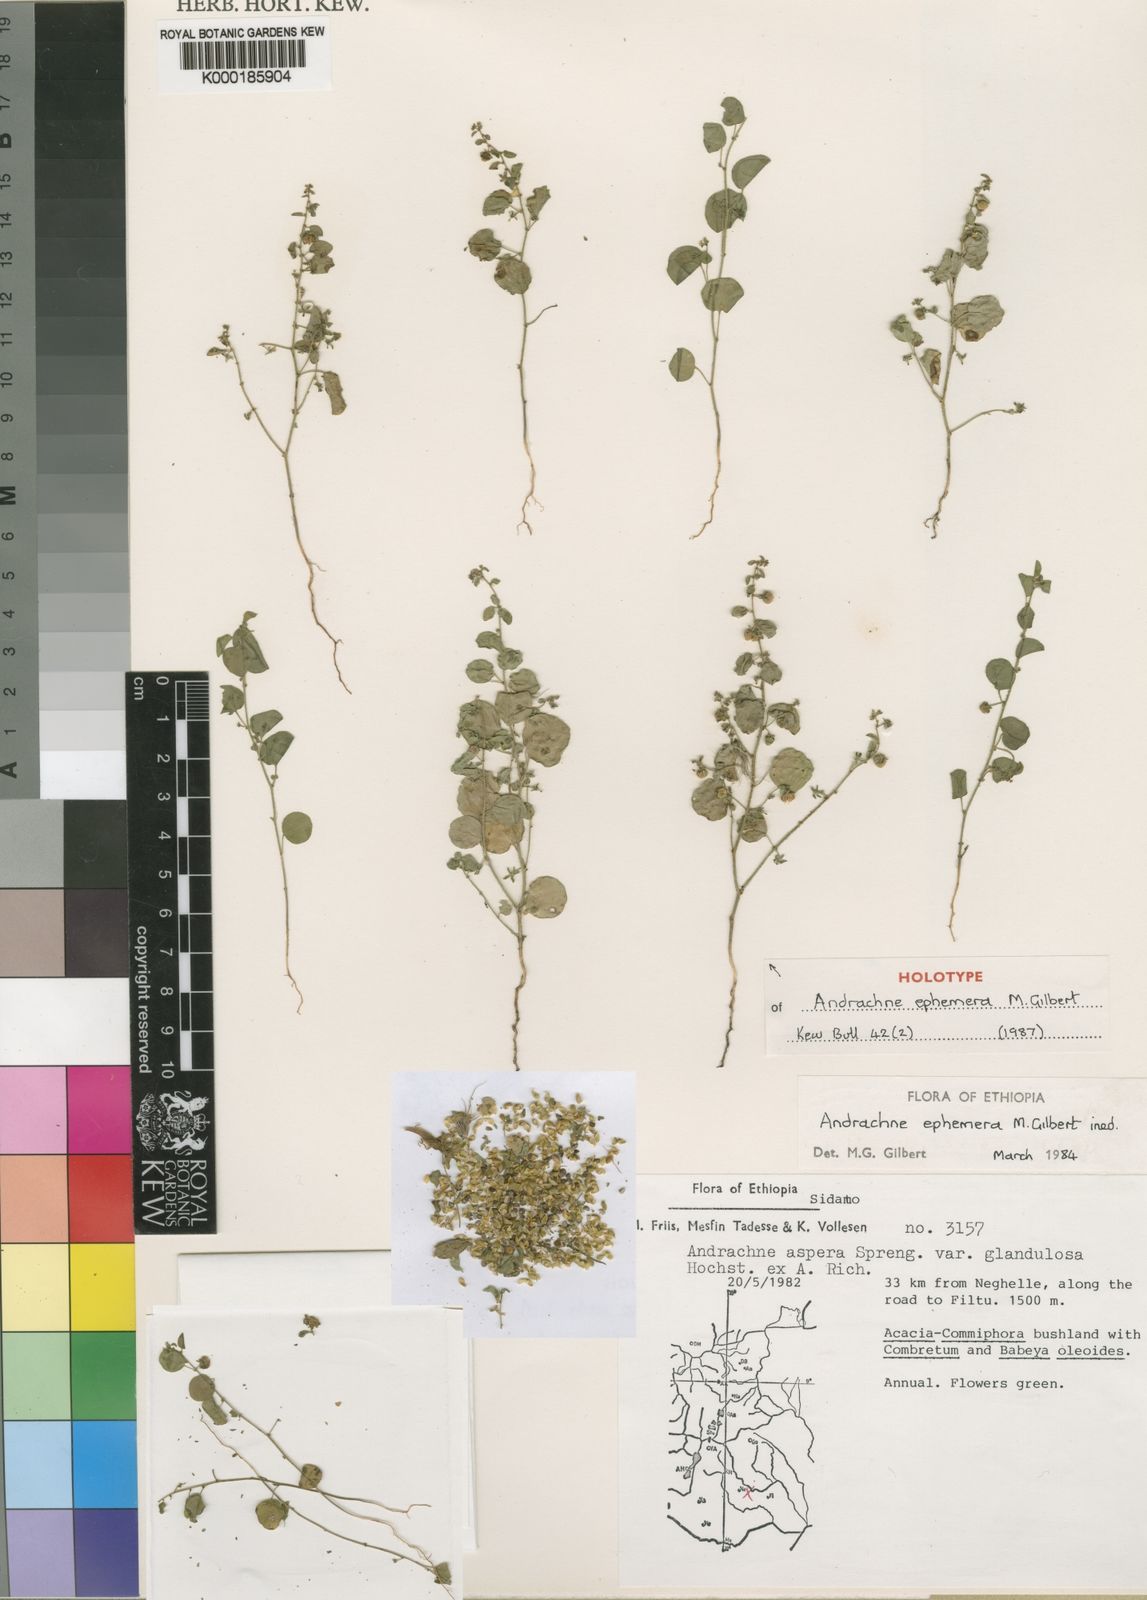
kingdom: Plantae
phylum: Tracheophyta
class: Magnoliopsida
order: Malpighiales
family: Phyllanthaceae
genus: Andrachne
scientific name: Andrachne ephemera
